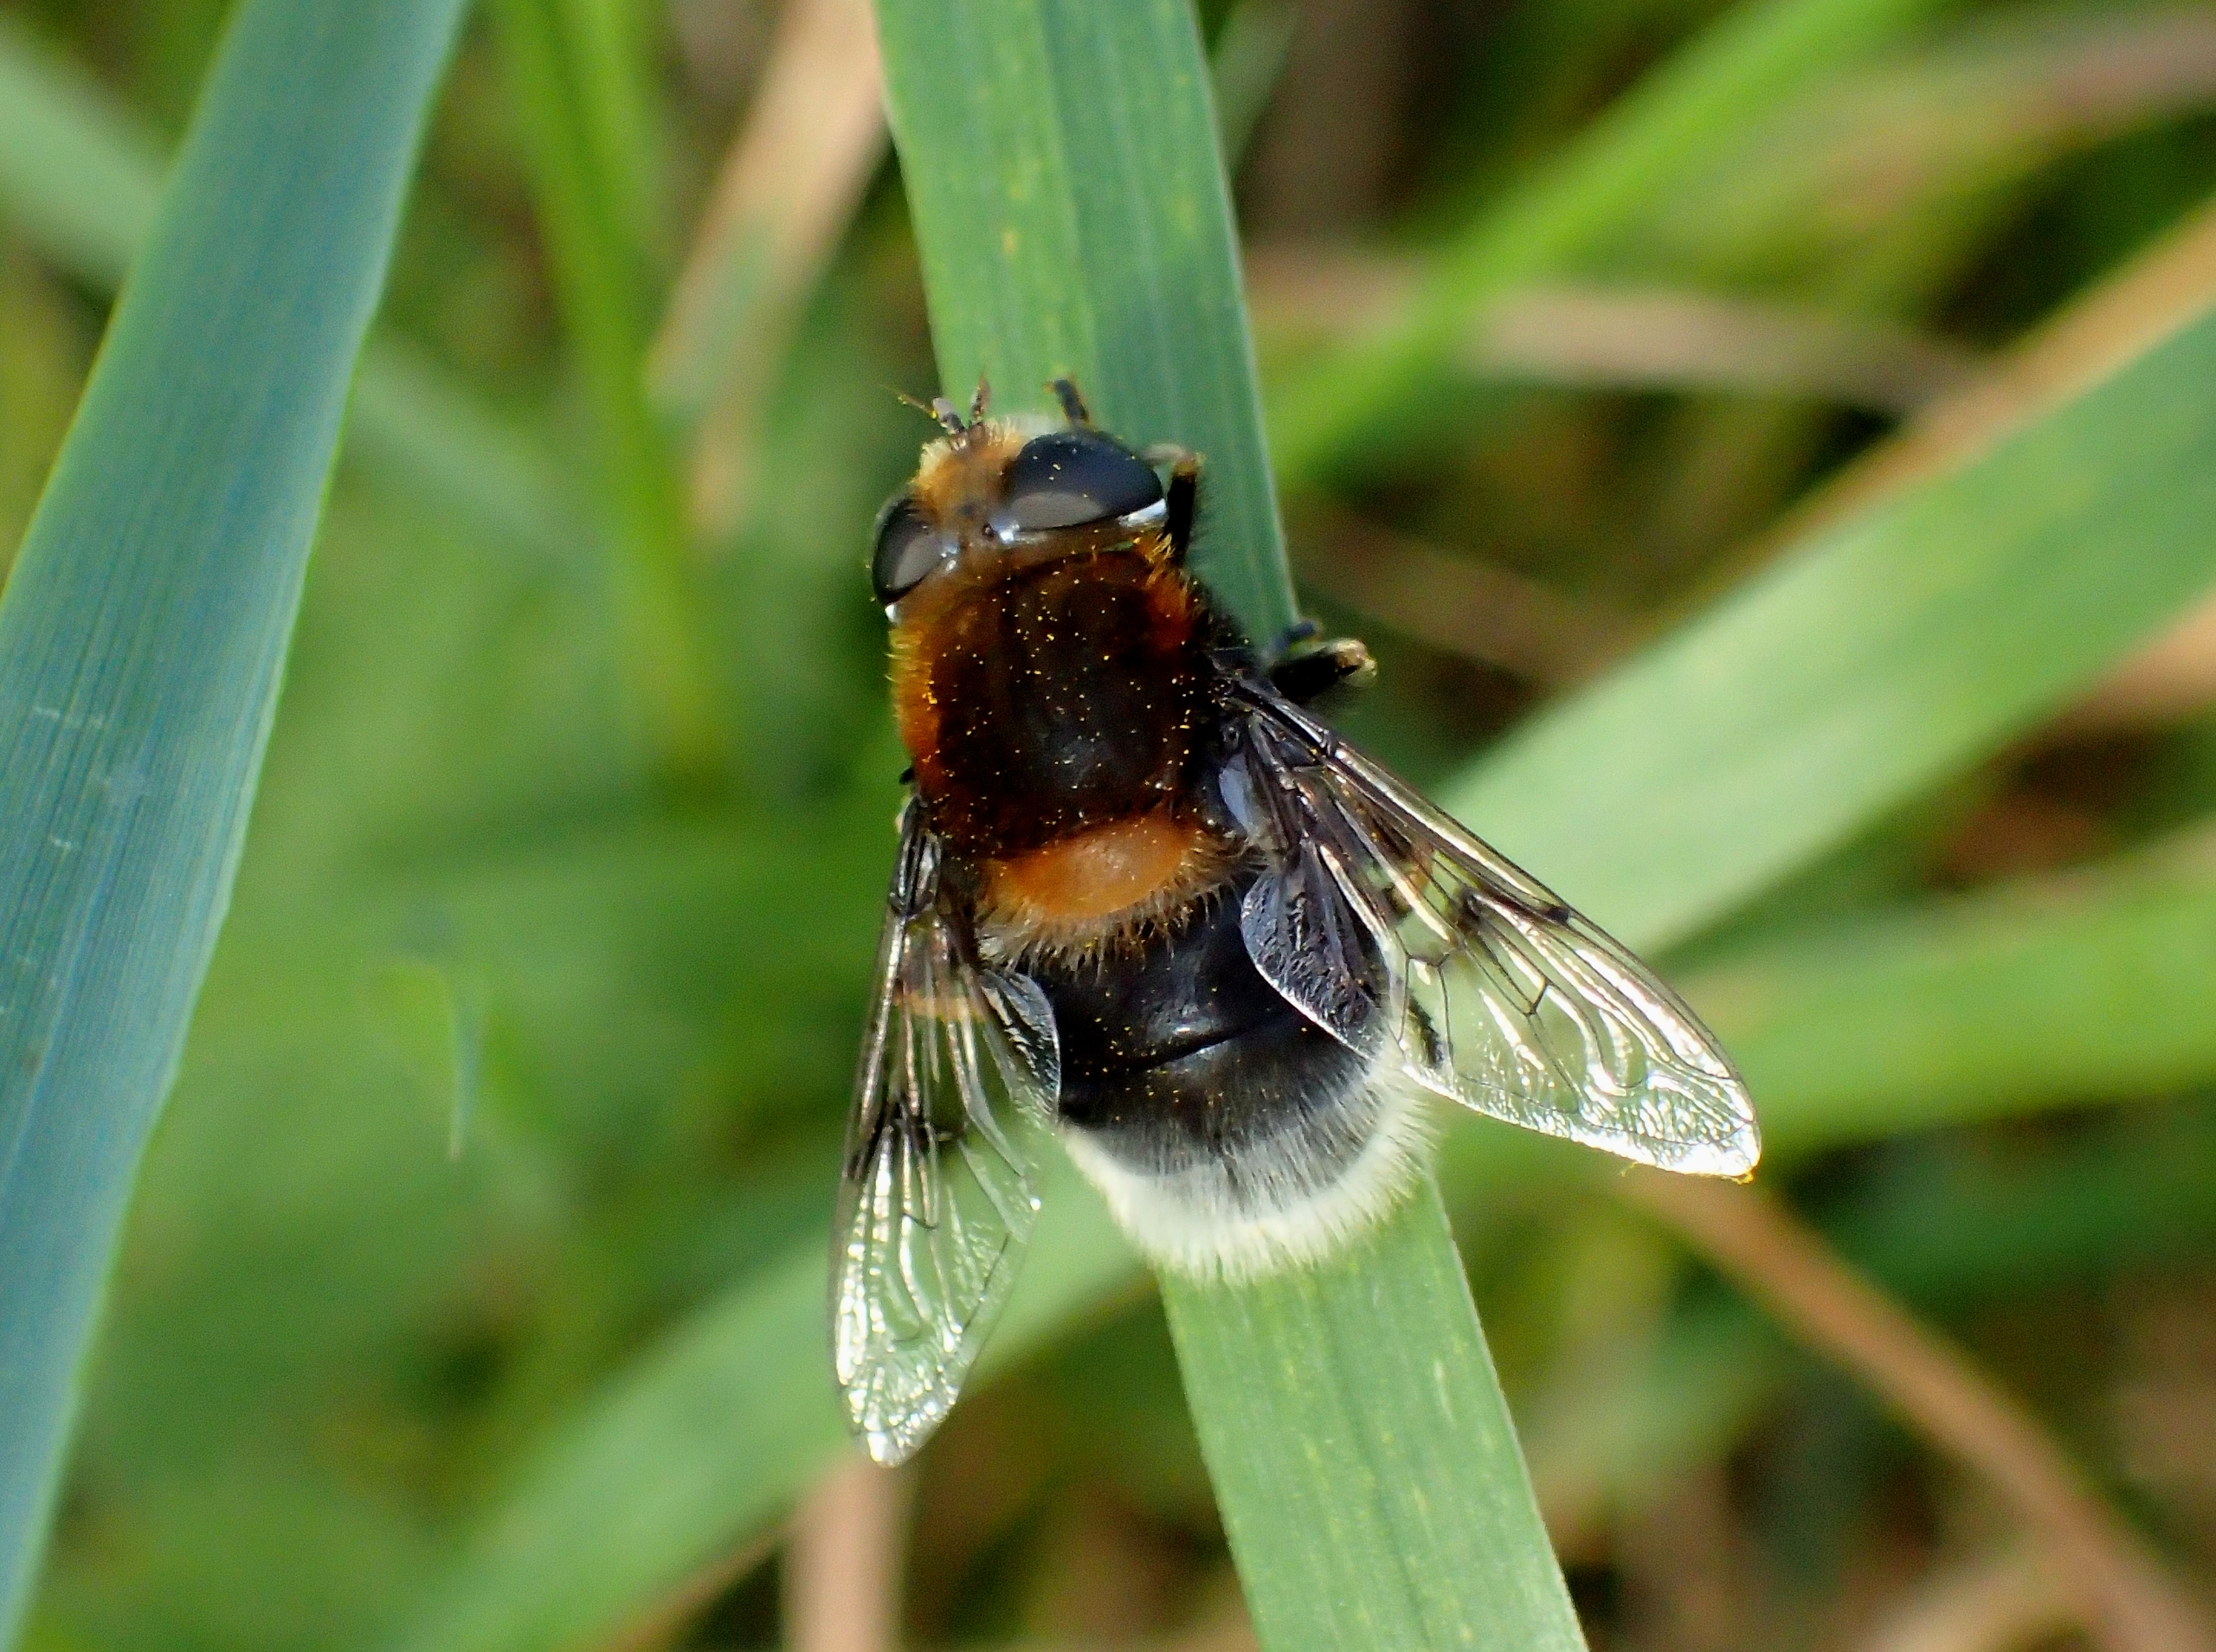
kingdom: Animalia
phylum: Arthropoda
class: Insecta
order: Diptera
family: Syrphidae
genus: Eristalis
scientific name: Eristalis intricaria
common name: Håret dyndflue
